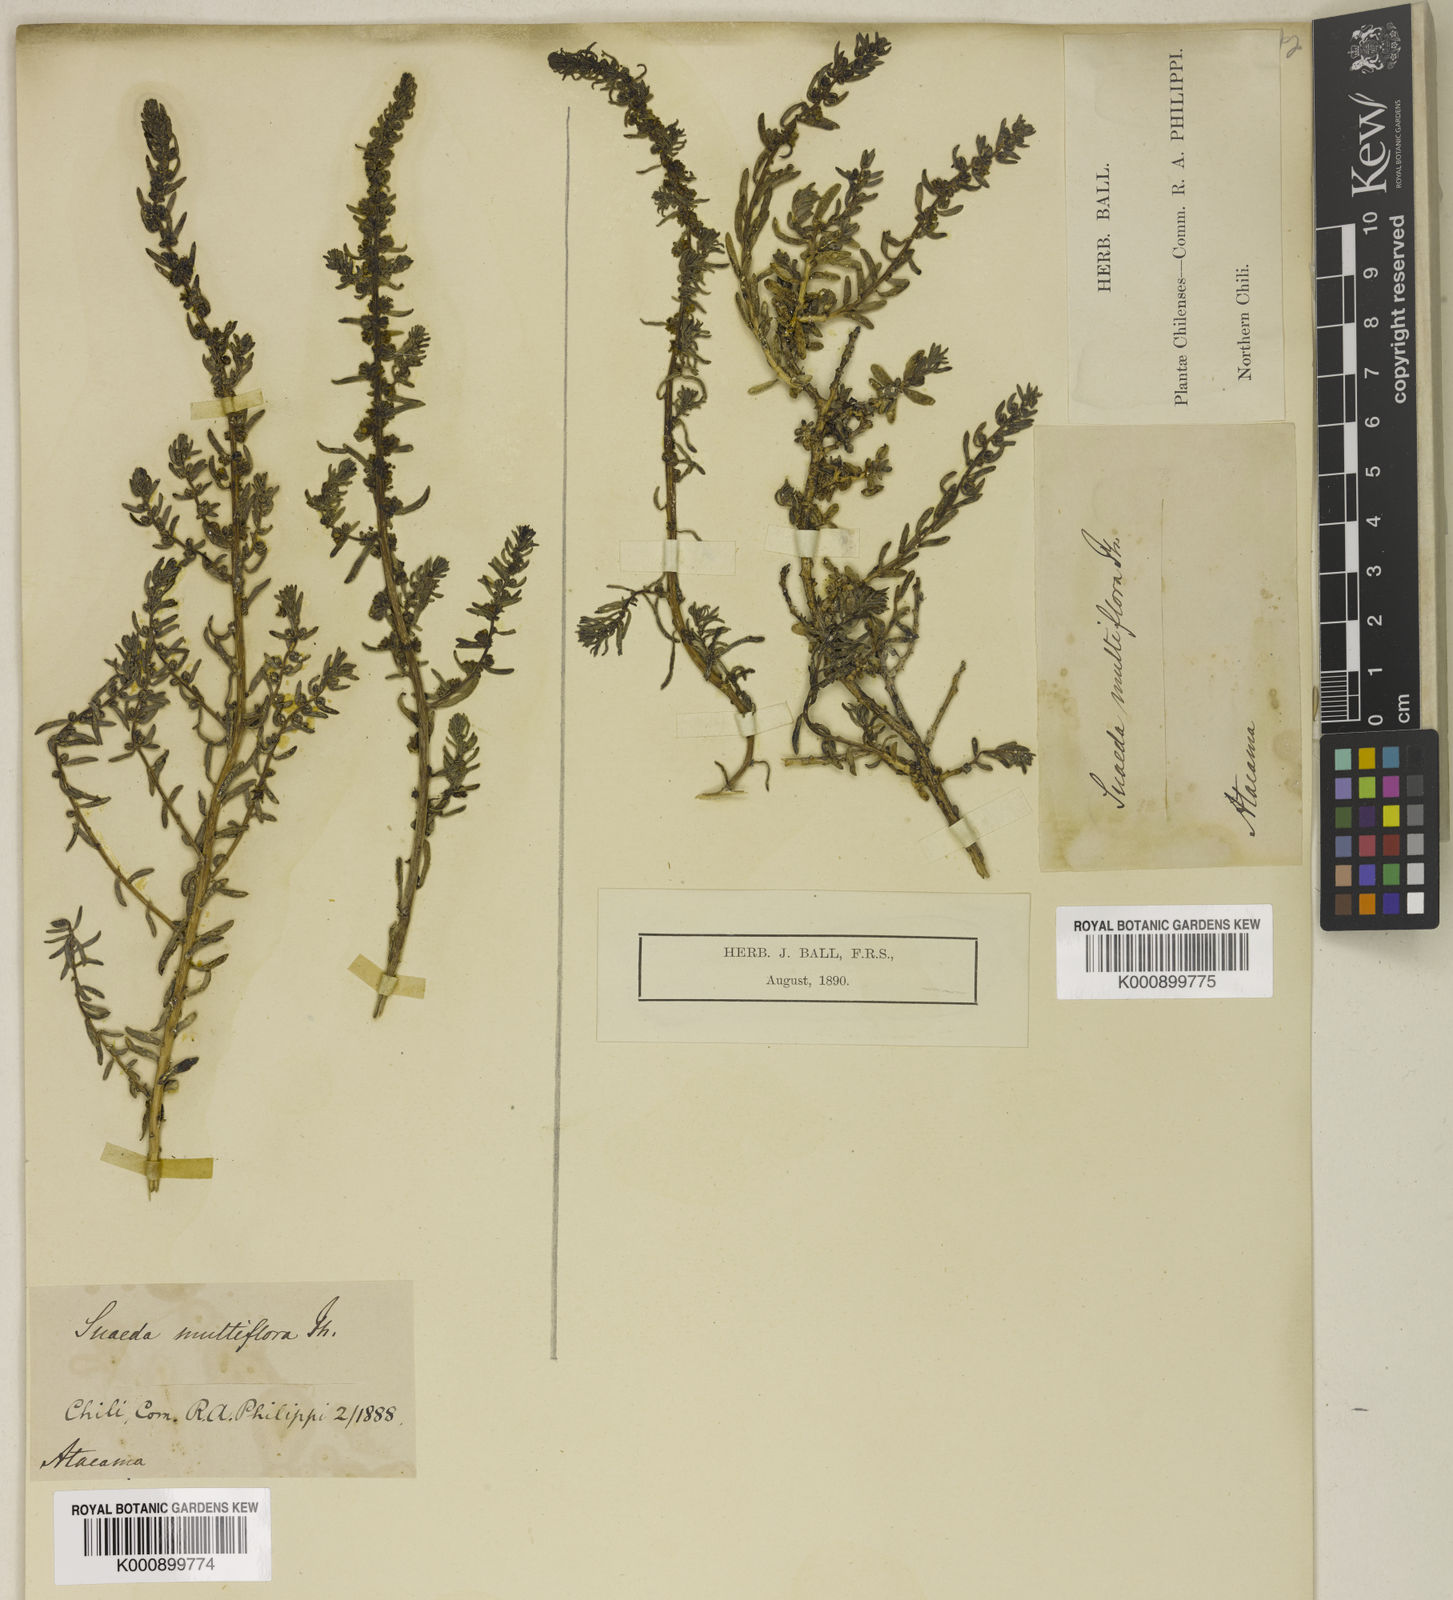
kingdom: Plantae
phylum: Tracheophyta
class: Magnoliopsida
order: Caryophyllales
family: Amaranthaceae
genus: Suaeda
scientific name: Suaeda multiflora
